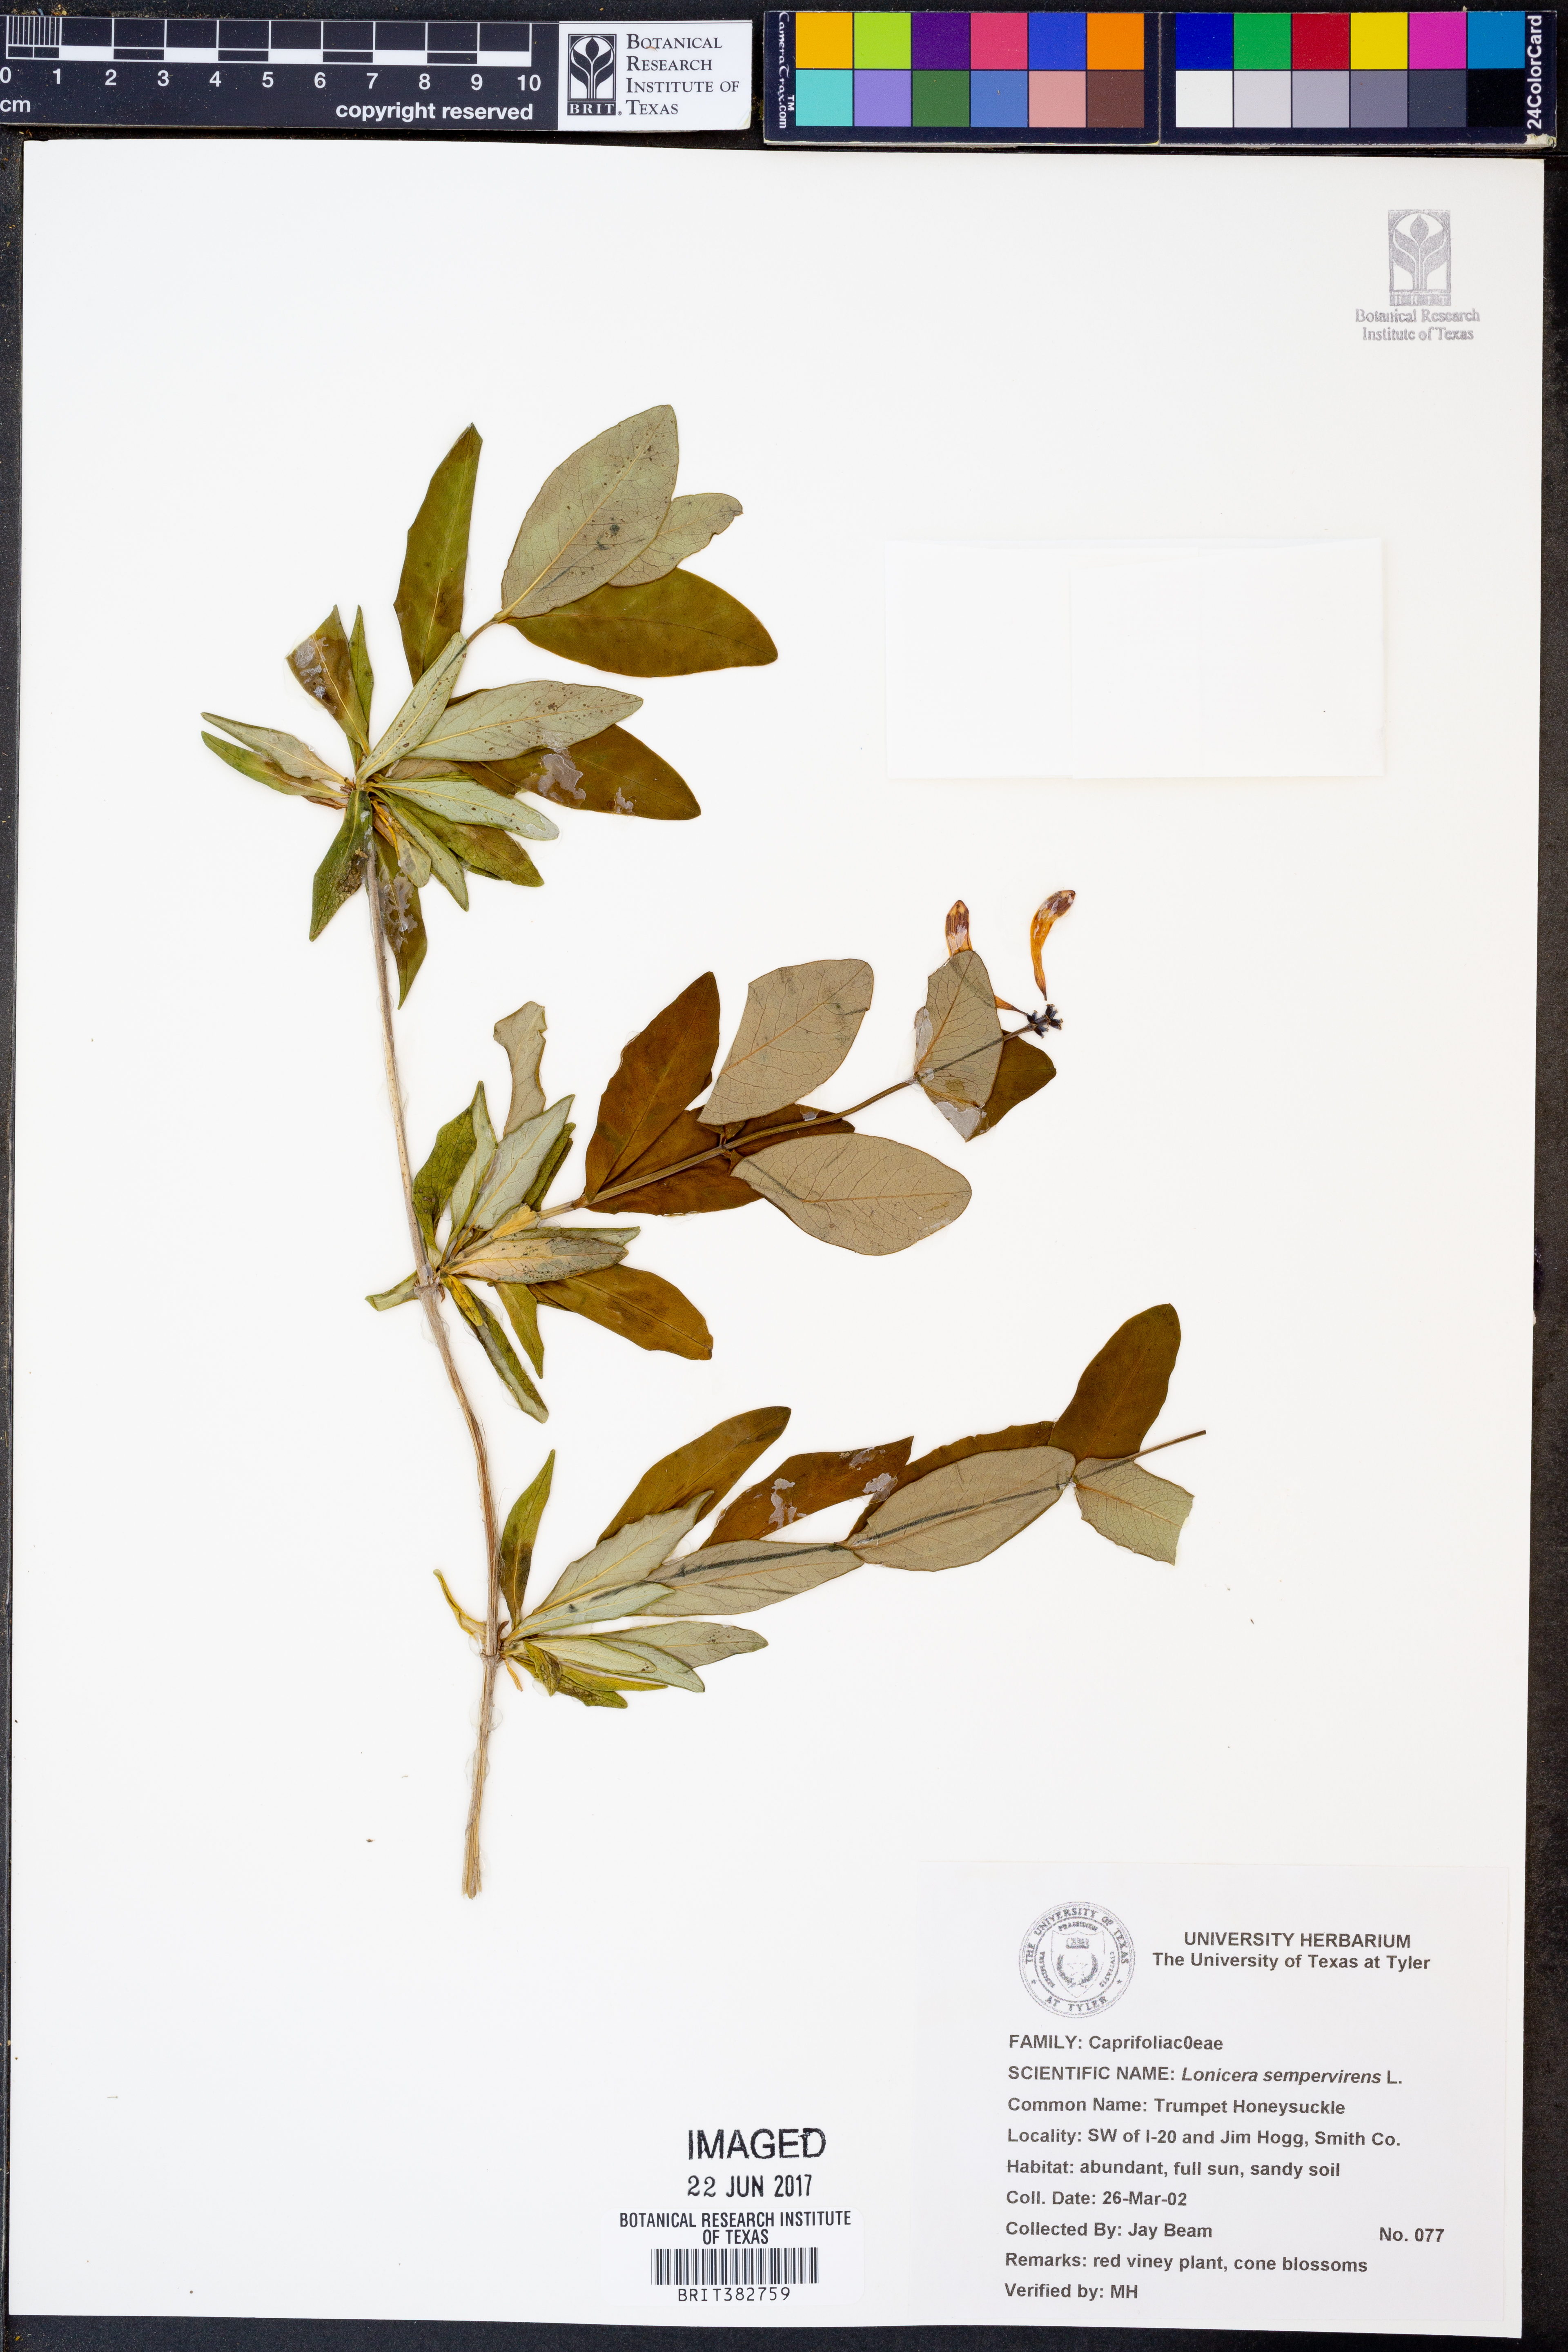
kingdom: Plantae
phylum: Tracheophyta
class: Magnoliopsida
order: Dipsacales
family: Caprifoliaceae
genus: Lonicera
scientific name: Lonicera sempervirens
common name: Coral honeysuckle
